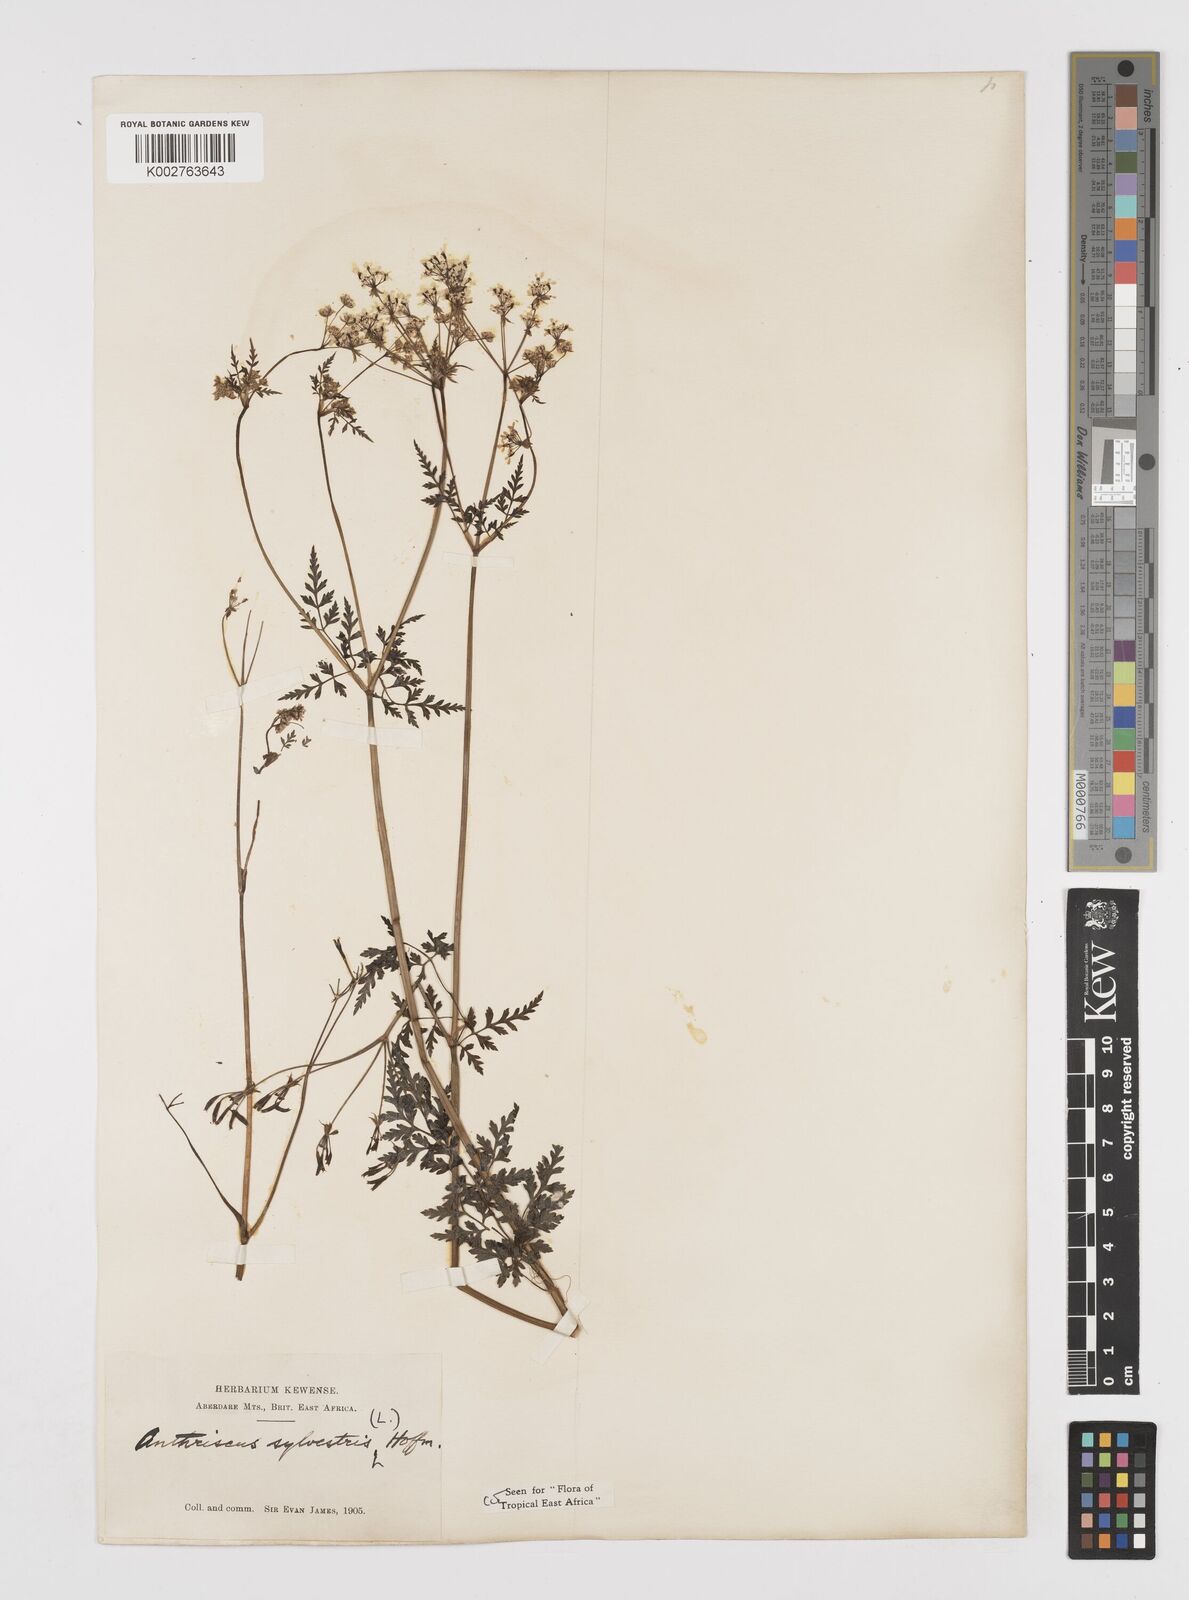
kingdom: Plantae
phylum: Tracheophyta
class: Magnoliopsida
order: Apiales
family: Apiaceae
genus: Anthriscus
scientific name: Anthriscus sylvestris
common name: Cow parsley
